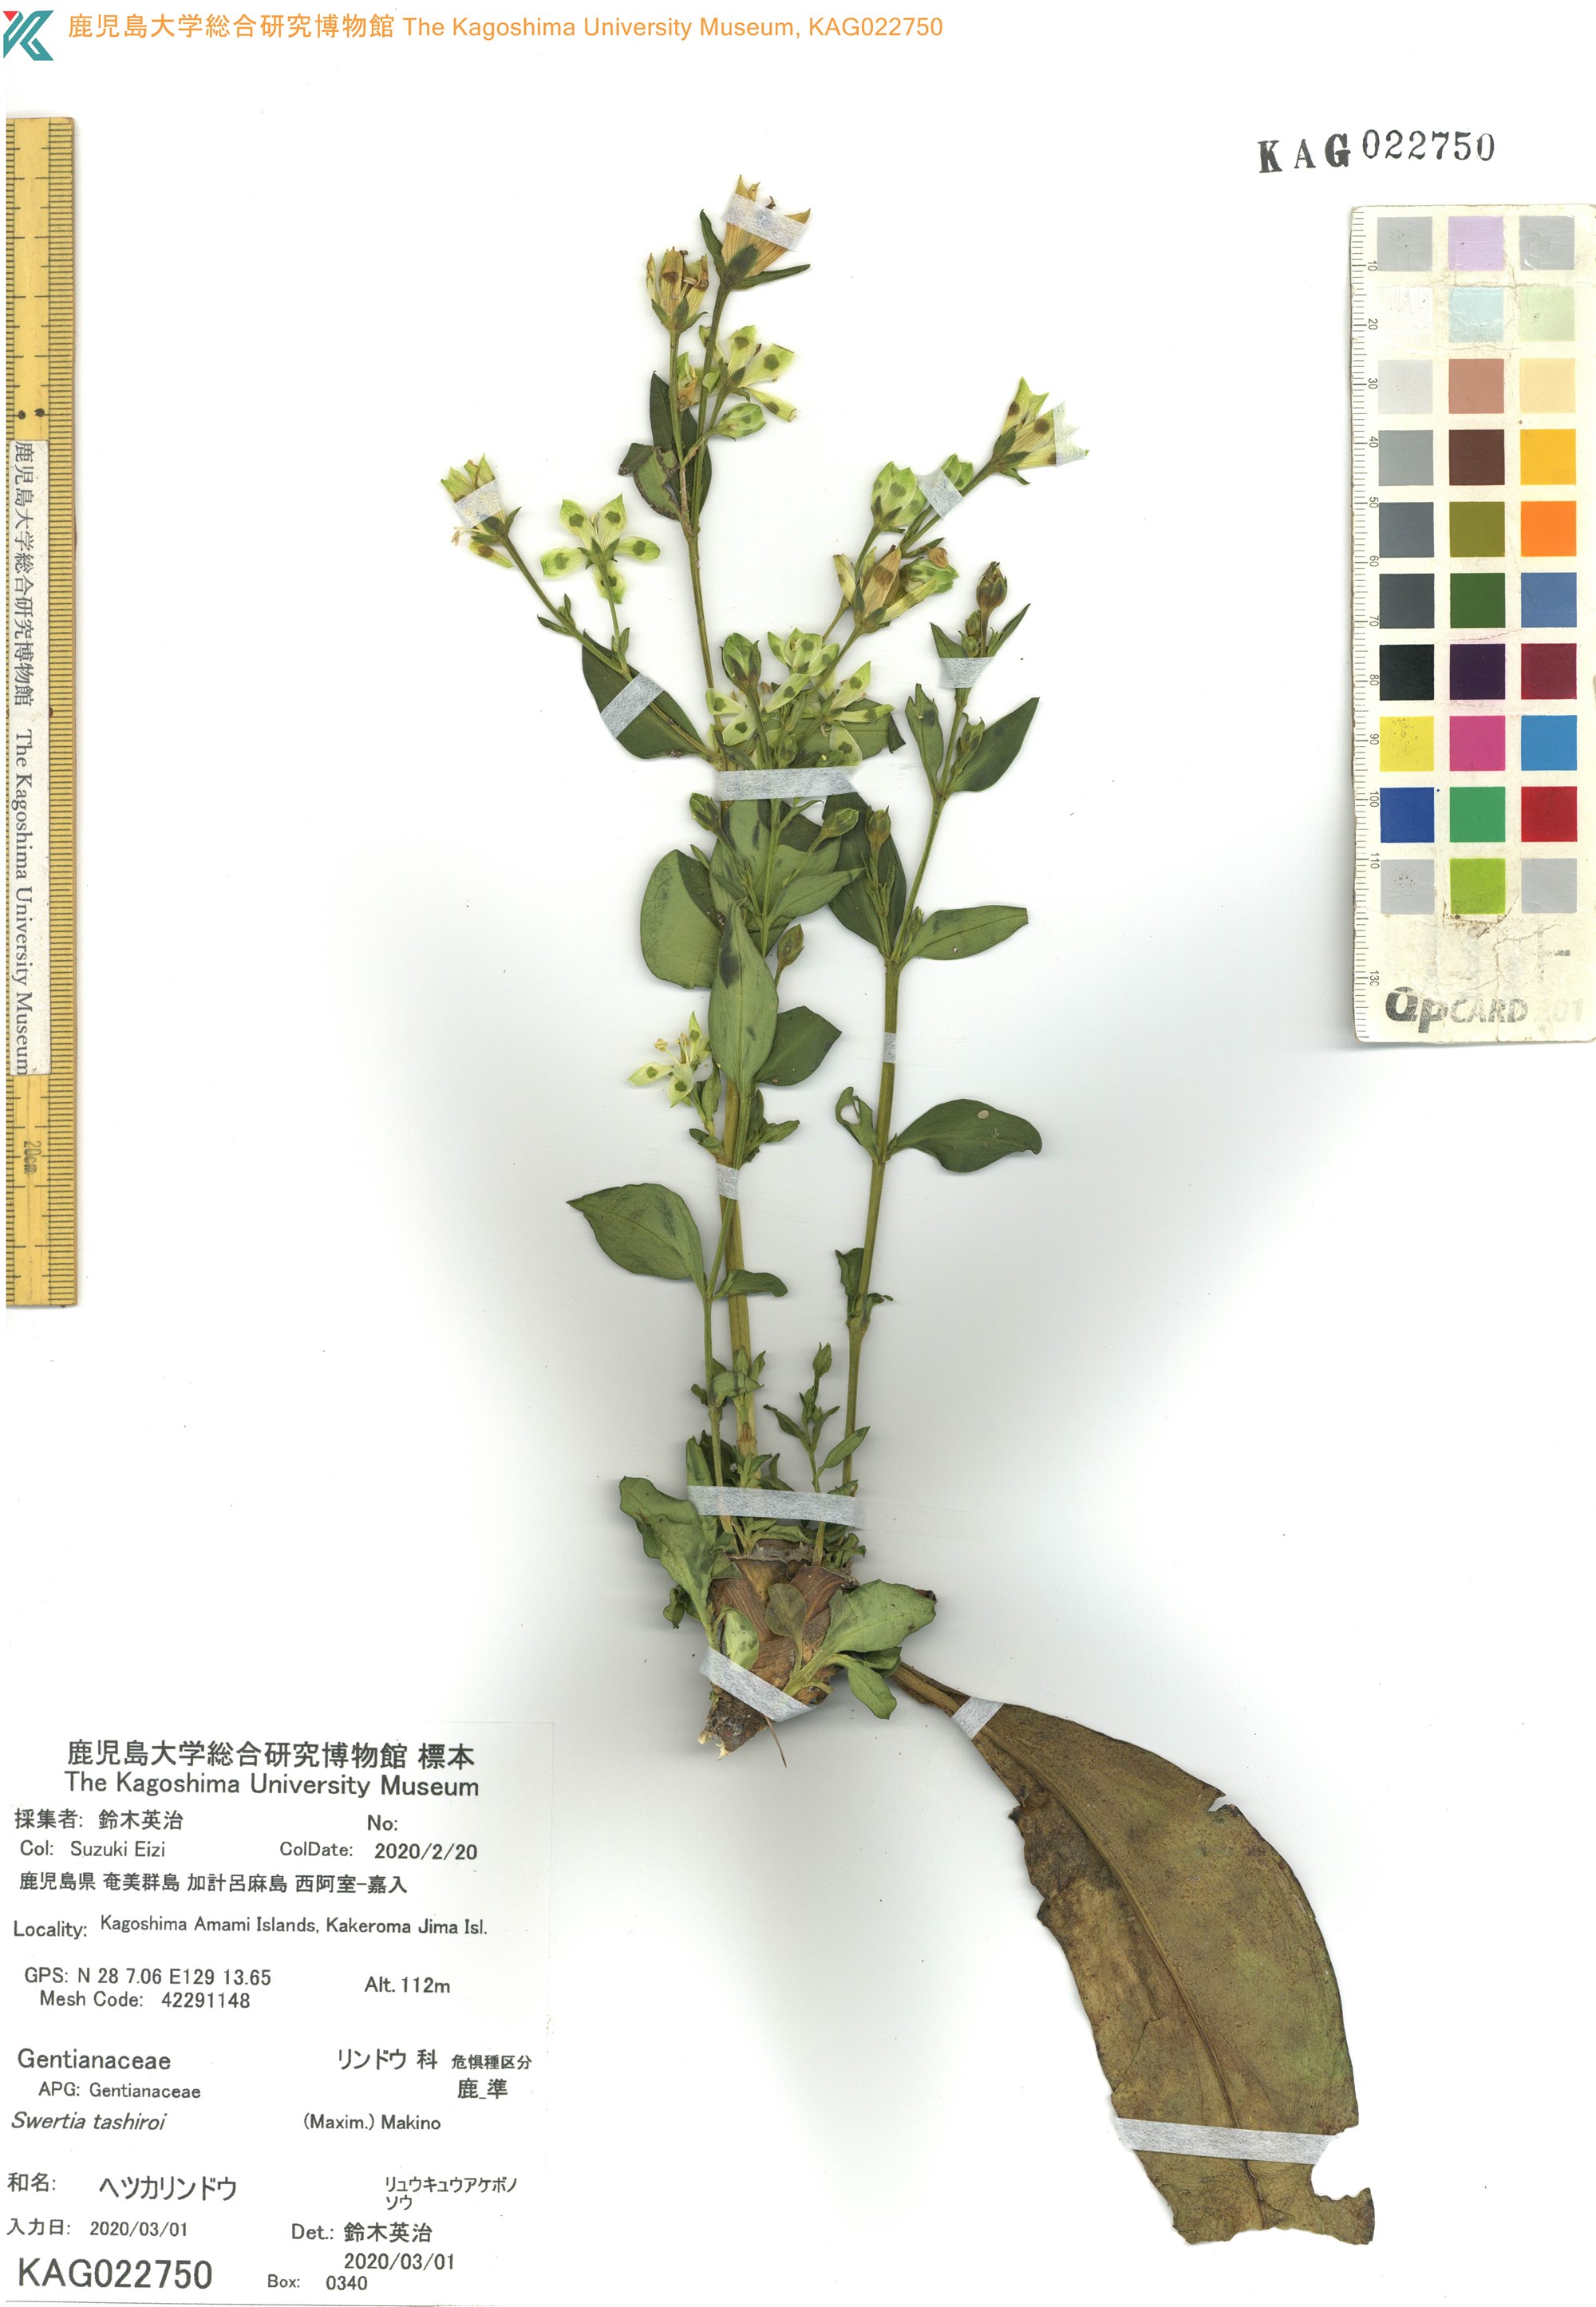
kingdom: Plantae
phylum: Tracheophyta
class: Magnoliopsida
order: Gentianales
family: Gentianaceae
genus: Swertia
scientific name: Swertia tashiroi
